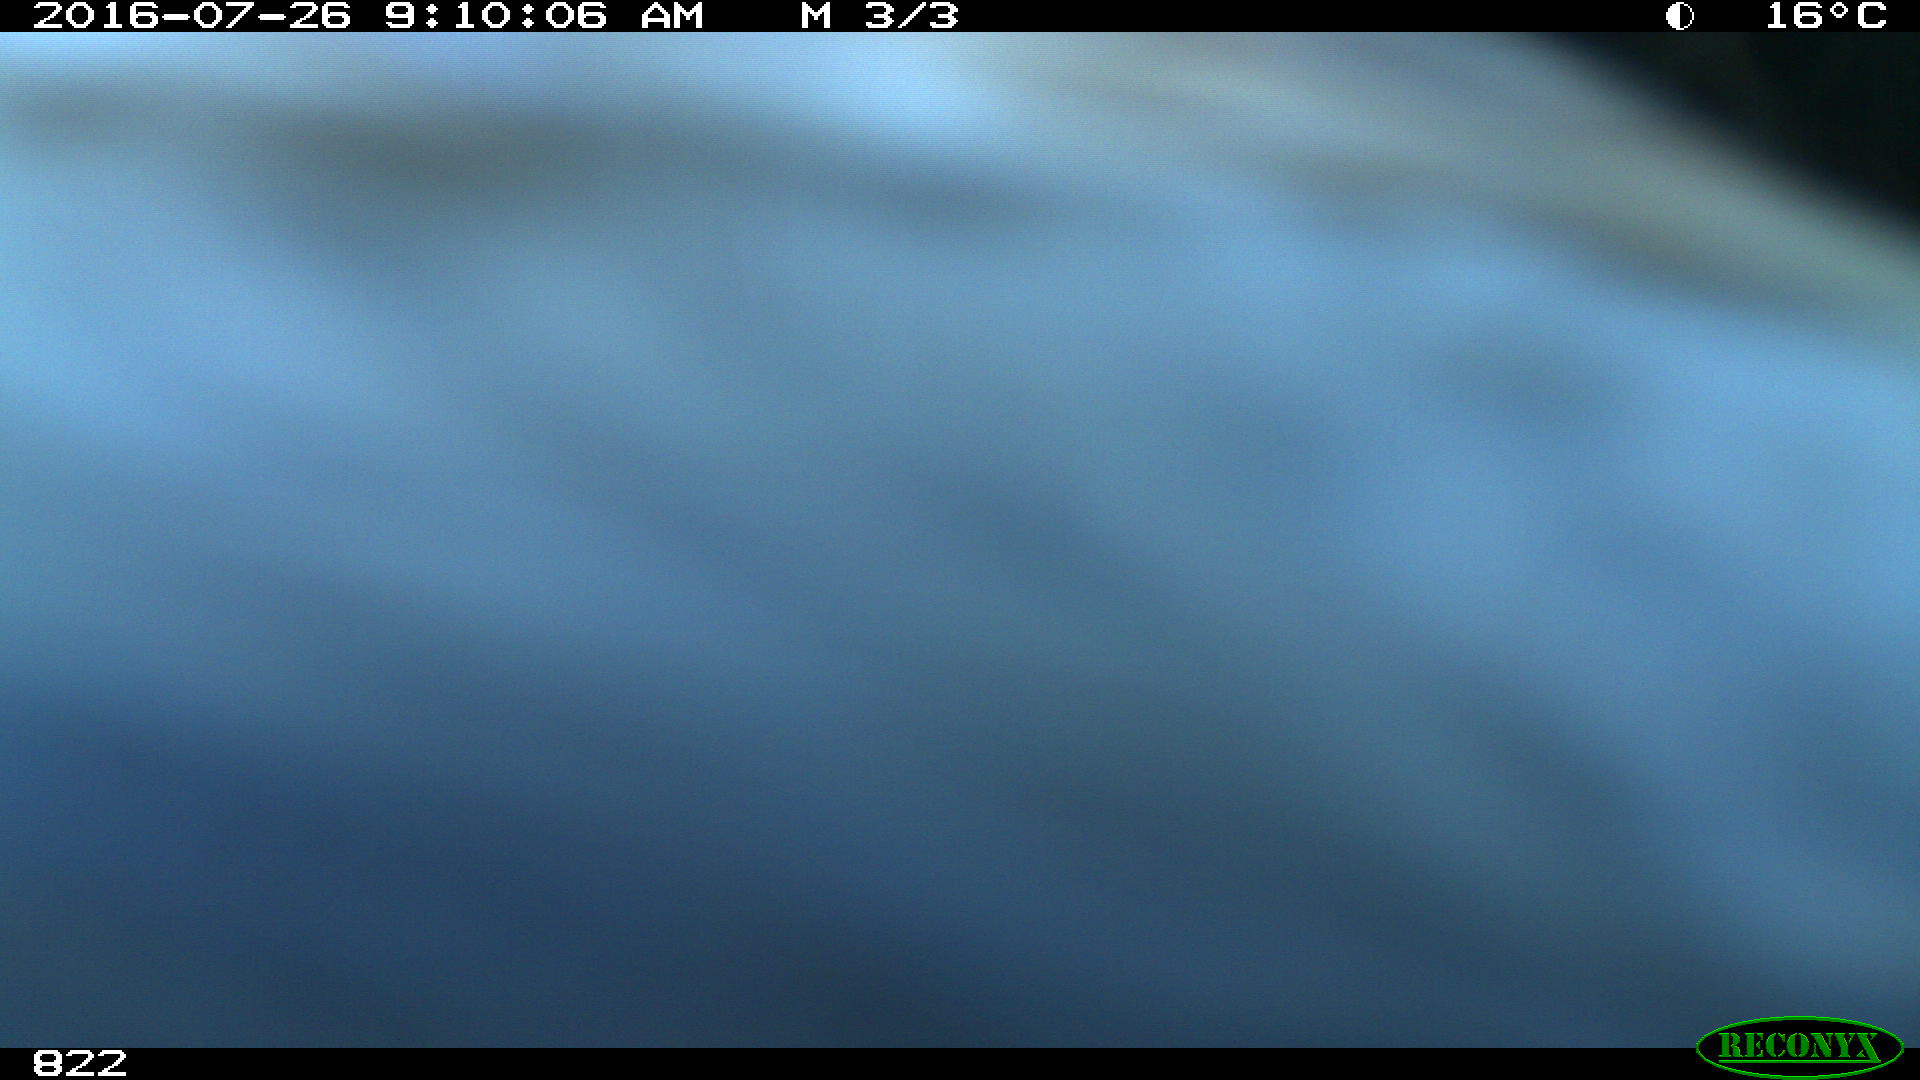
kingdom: Animalia
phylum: Chordata
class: Mammalia
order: Artiodactyla
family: Bovidae
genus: Bos
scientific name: Bos taurus
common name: Domesticated cattle
